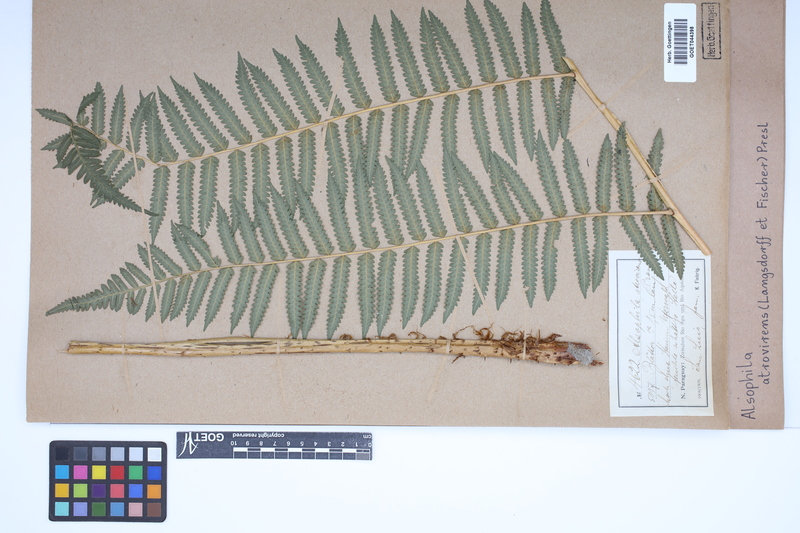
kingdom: Plantae
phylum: Tracheophyta
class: Polypodiopsida
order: Cyatheales
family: Cyatheaceae
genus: Cyathea
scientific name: Cyathea atrovirens
